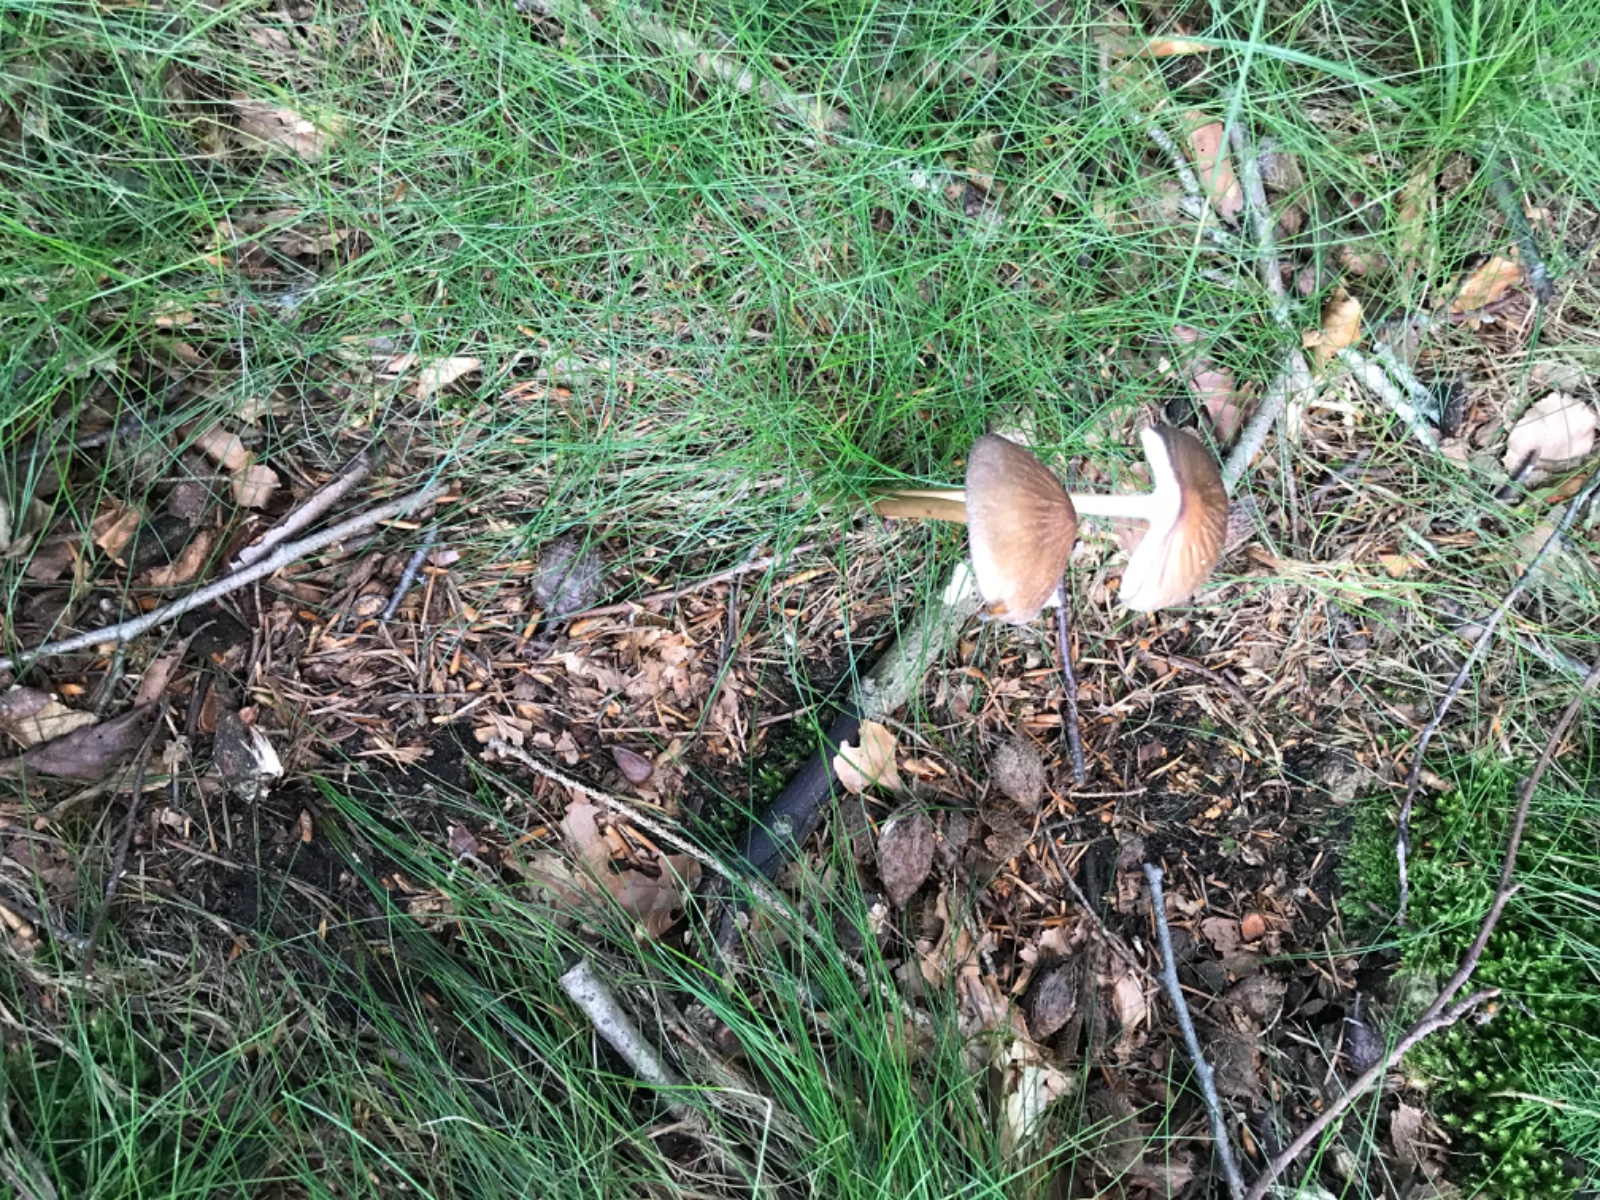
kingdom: Fungi
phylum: Basidiomycota
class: Agaricomycetes
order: Agaricales
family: Physalacriaceae
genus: Hymenopellis
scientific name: Hymenopellis radicata
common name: almindelig pælerodshat
